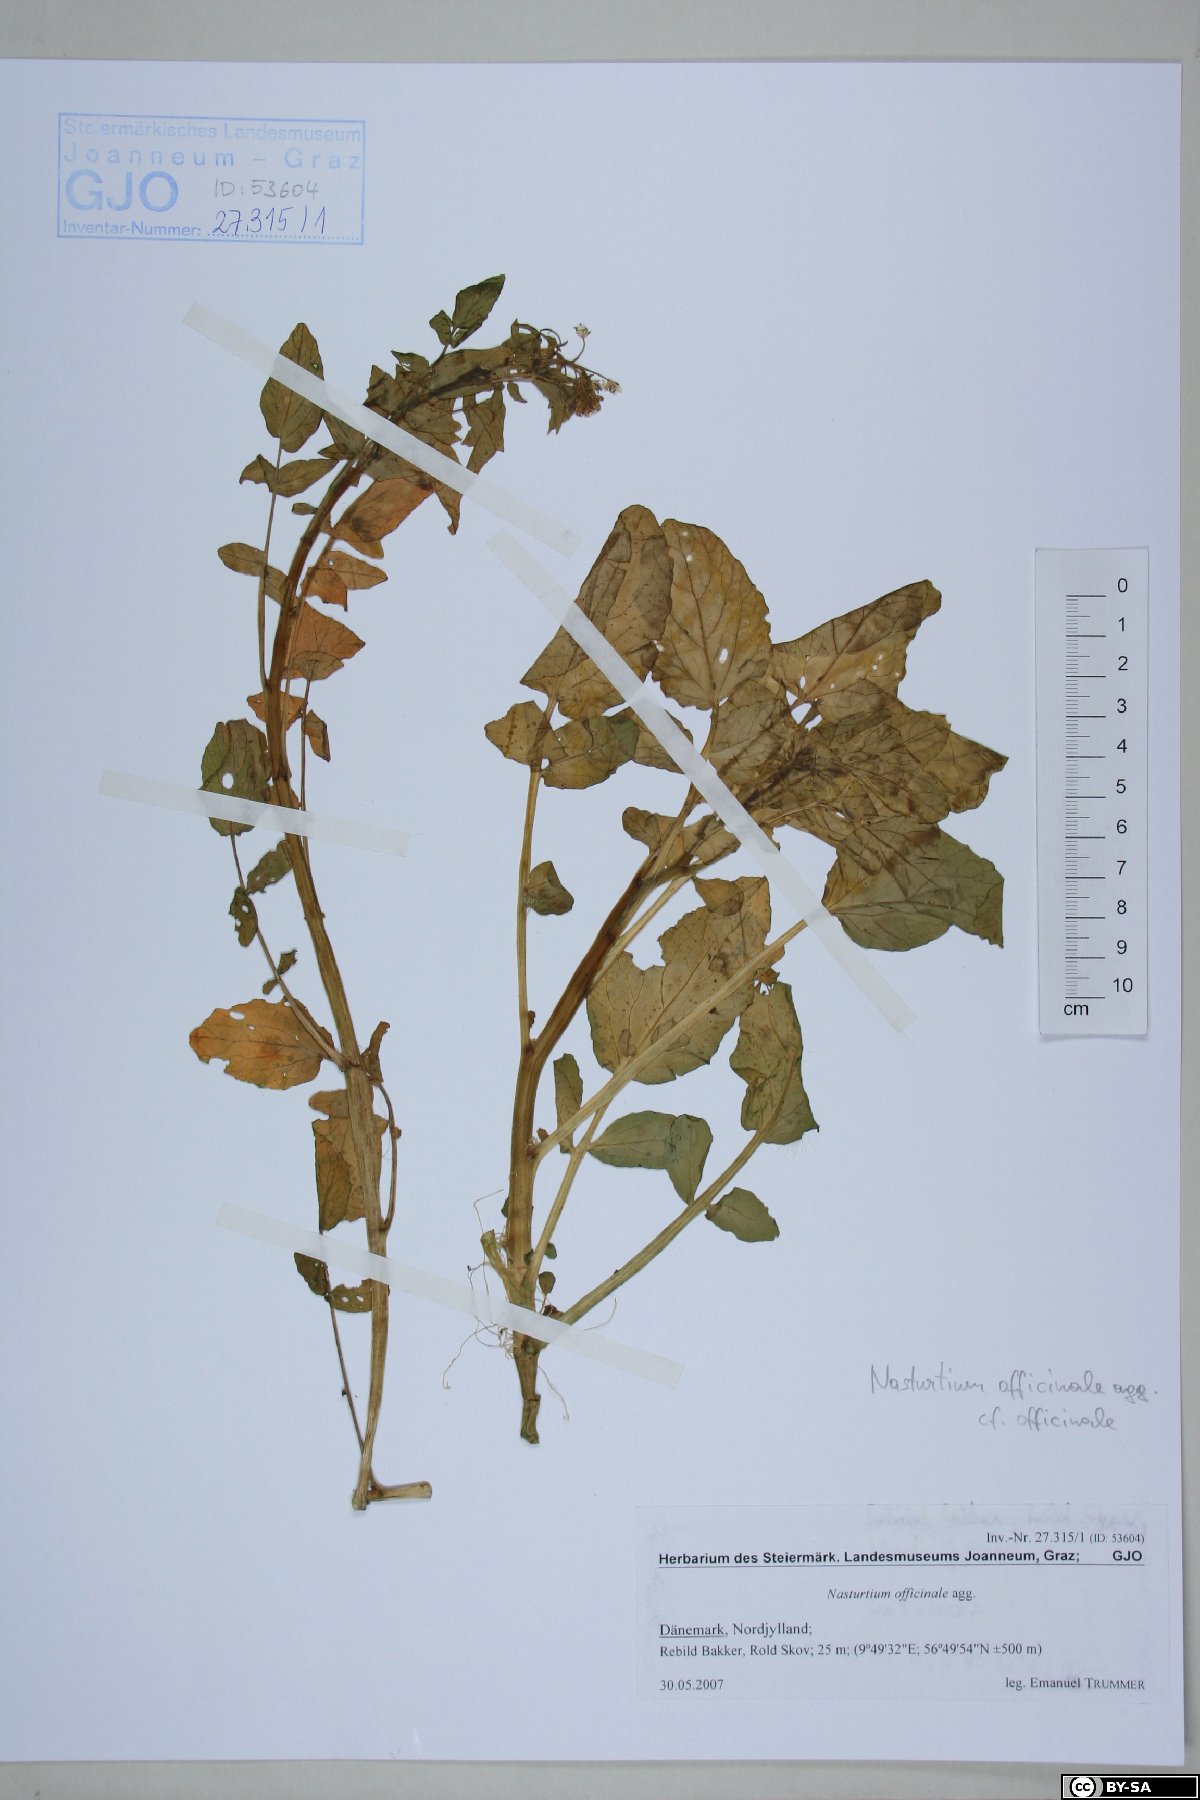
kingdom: Plantae
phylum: Tracheophyta
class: Magnoliopsida
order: Brassicales
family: Brassicaceae
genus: Nasturtium
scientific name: Nasturtium officinale
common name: Watercress
